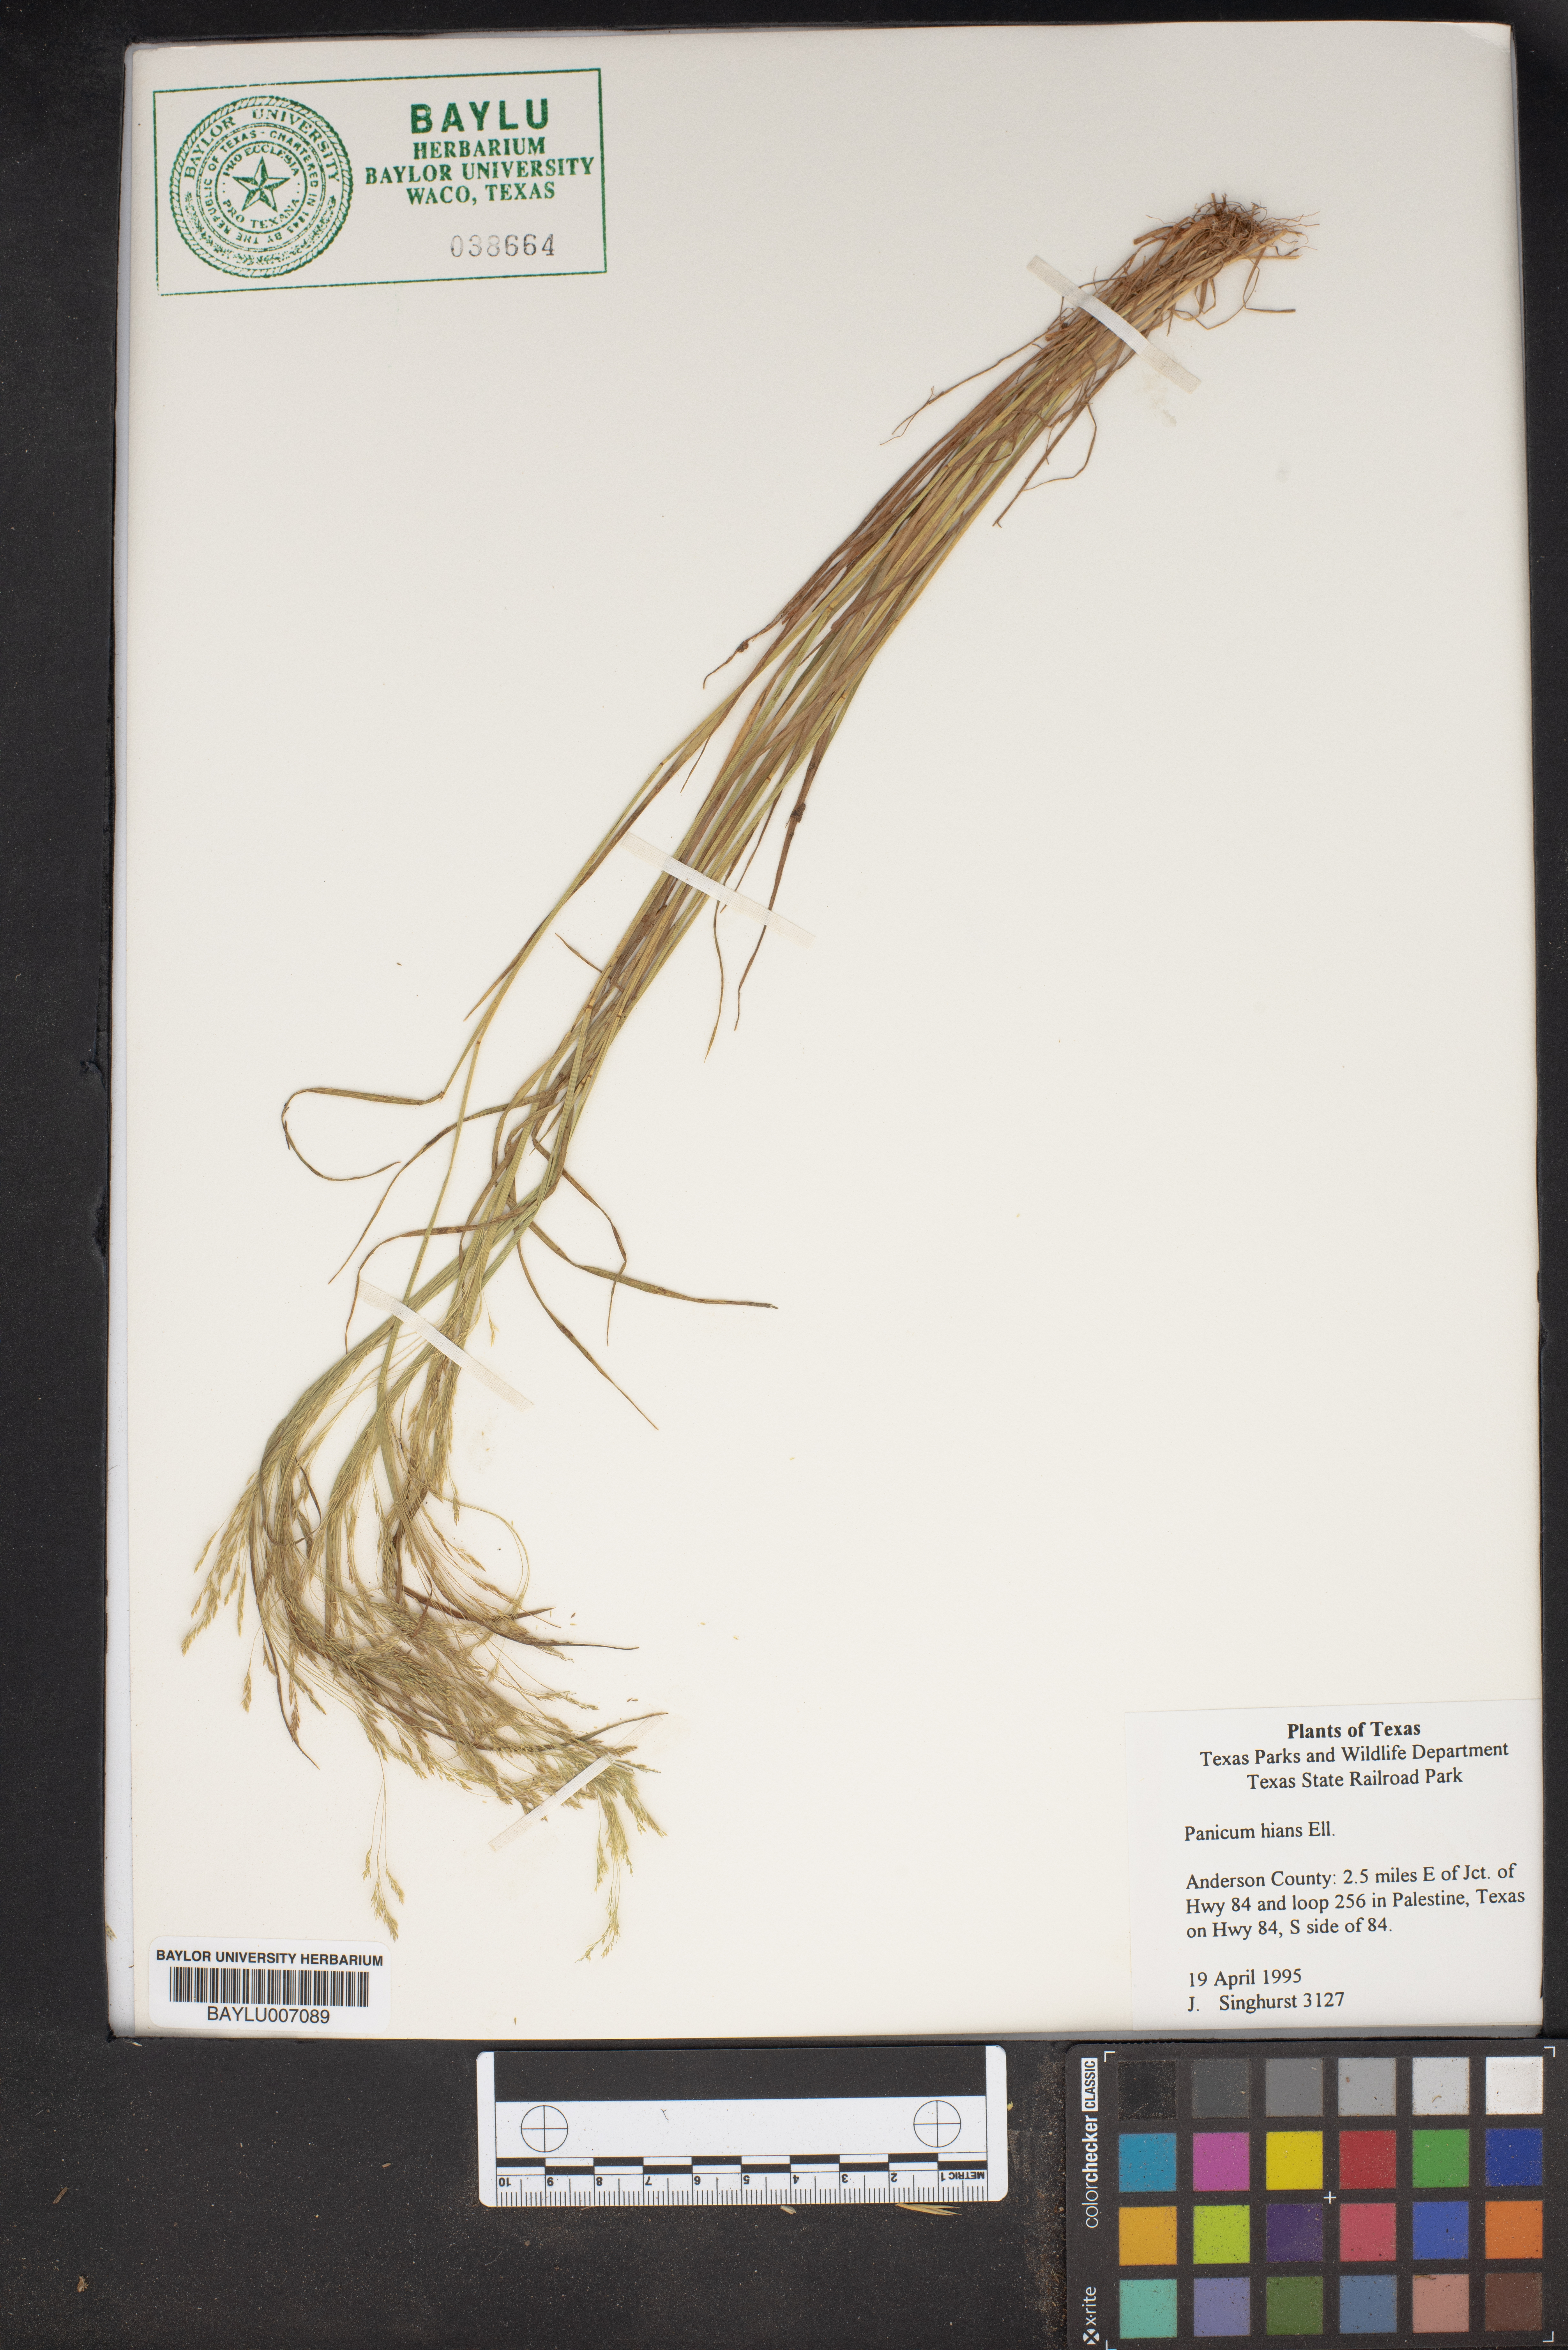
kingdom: Plantae
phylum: Tracheophyta
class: Liliopsida
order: Poales
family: Poaceae
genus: Coleataenia
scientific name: Coleataenia stenodes
